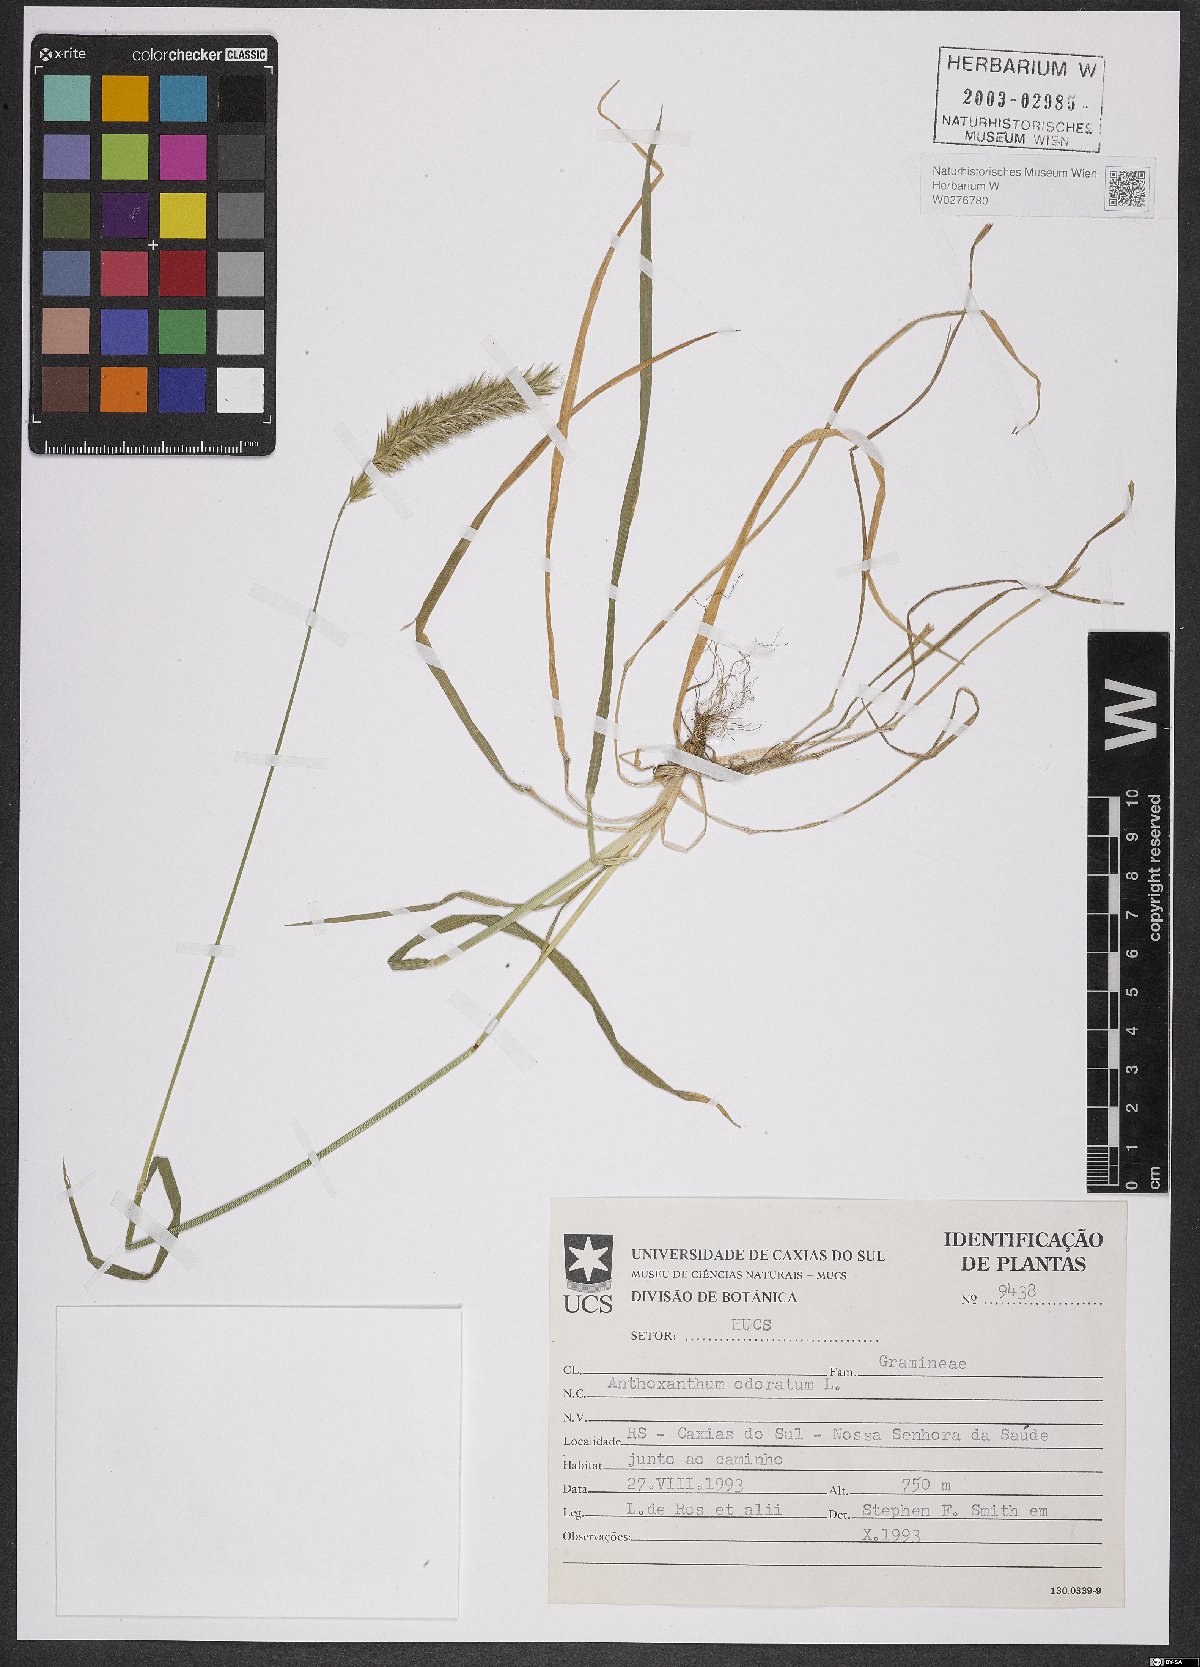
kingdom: Plantae
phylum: Tracheophyta
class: Liliopsida
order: Poales
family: Poaceae
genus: Anthoxanthum
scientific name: Anthoxanthum odoratum
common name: Sweet vernalgrass
